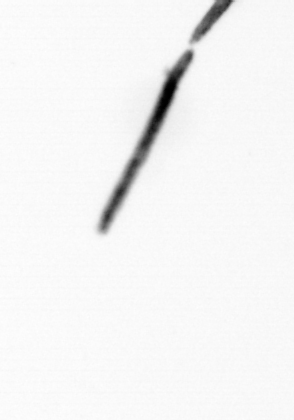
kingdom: Bacteria
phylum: Cyanobacteria
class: Cyanobacteriia
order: Cyanobacteriales
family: Microcoleaceae
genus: Trichodesmium
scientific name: Trichodesmium
